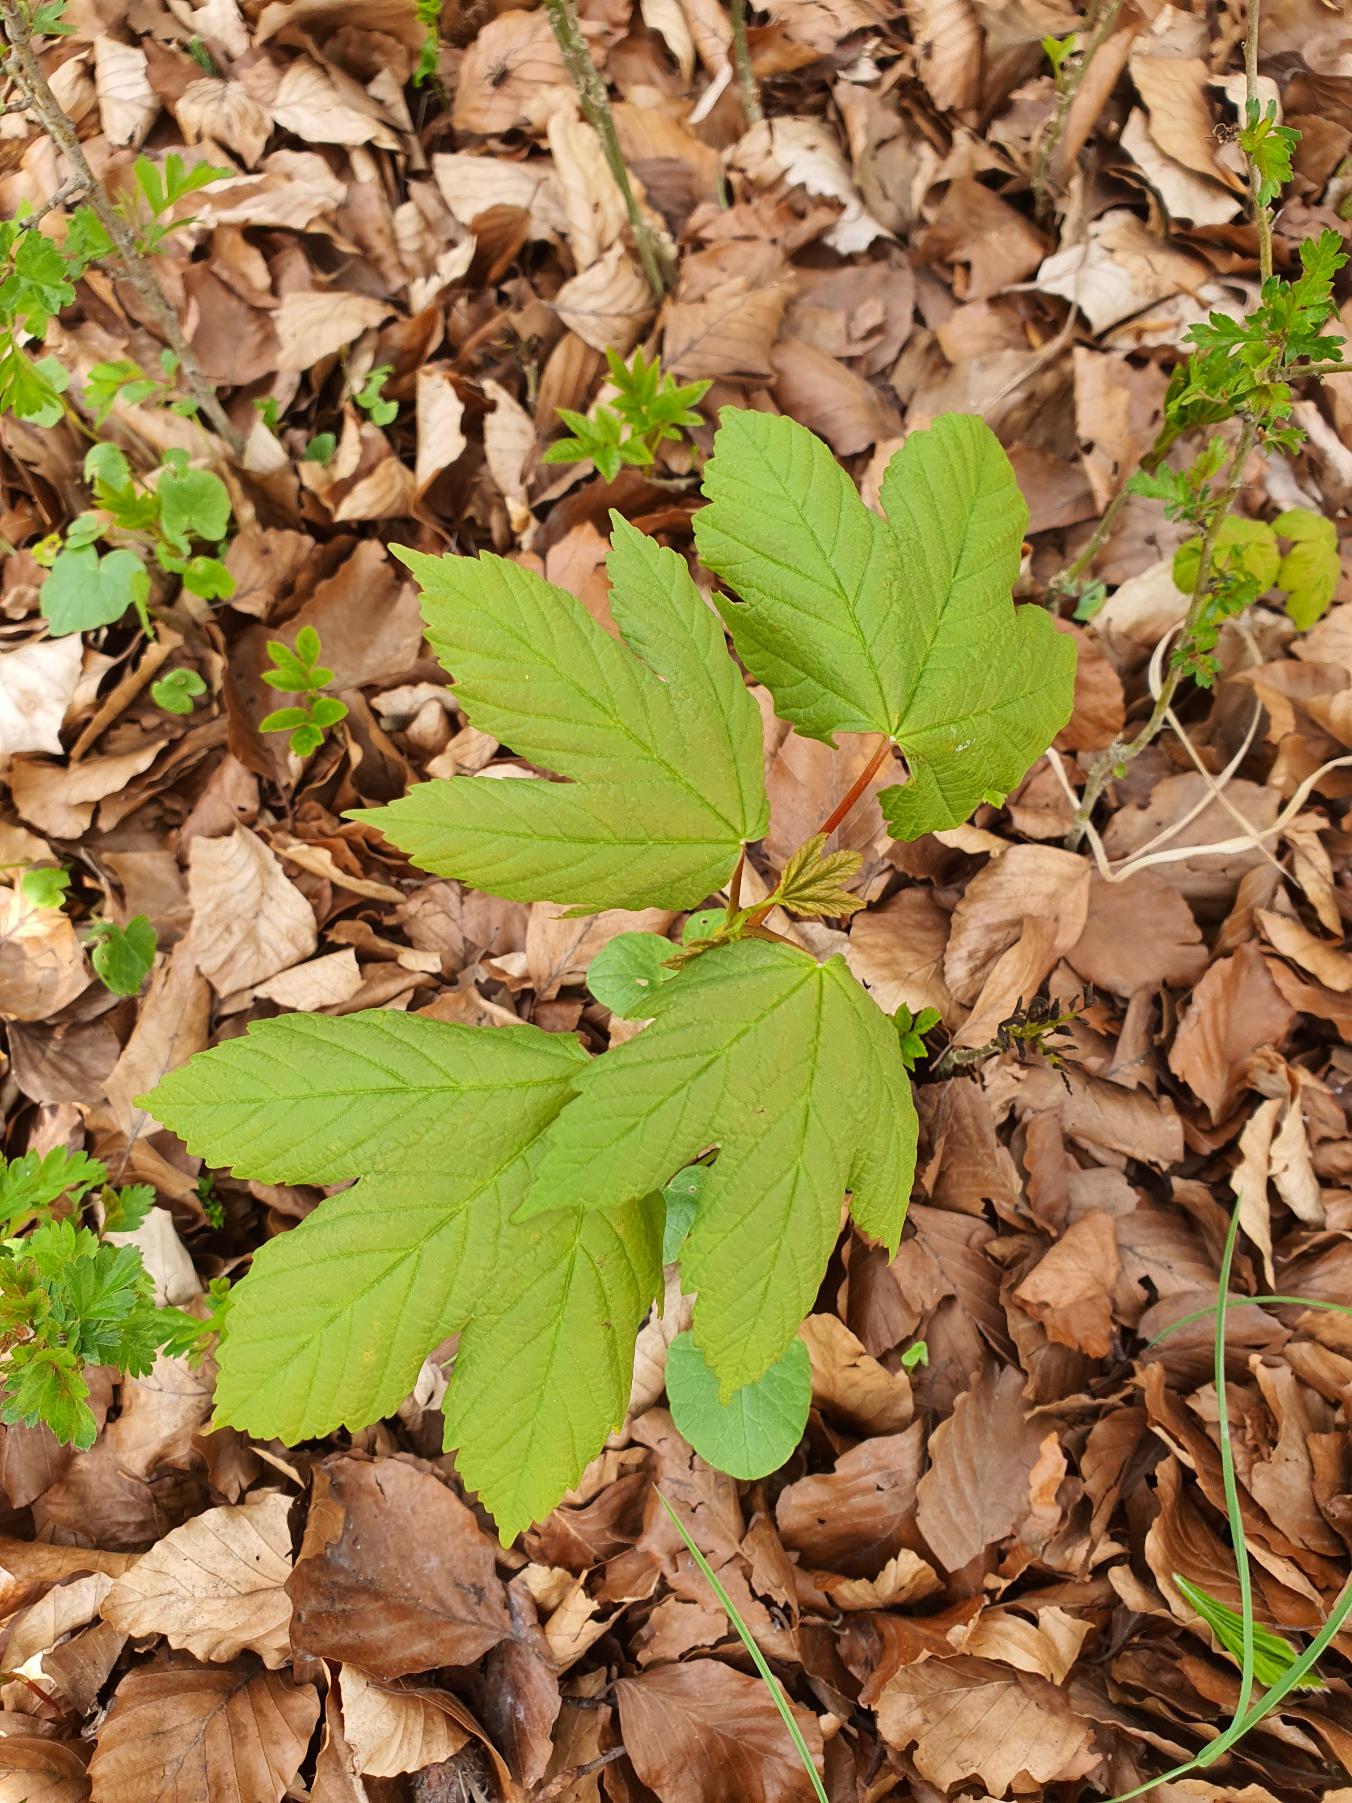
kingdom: Plantae
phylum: Tracheophyta
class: Magnoliopsida
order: Sapindales
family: Sapindaceae
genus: Acer
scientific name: Acer pseudoplatanus
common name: Ahorn
